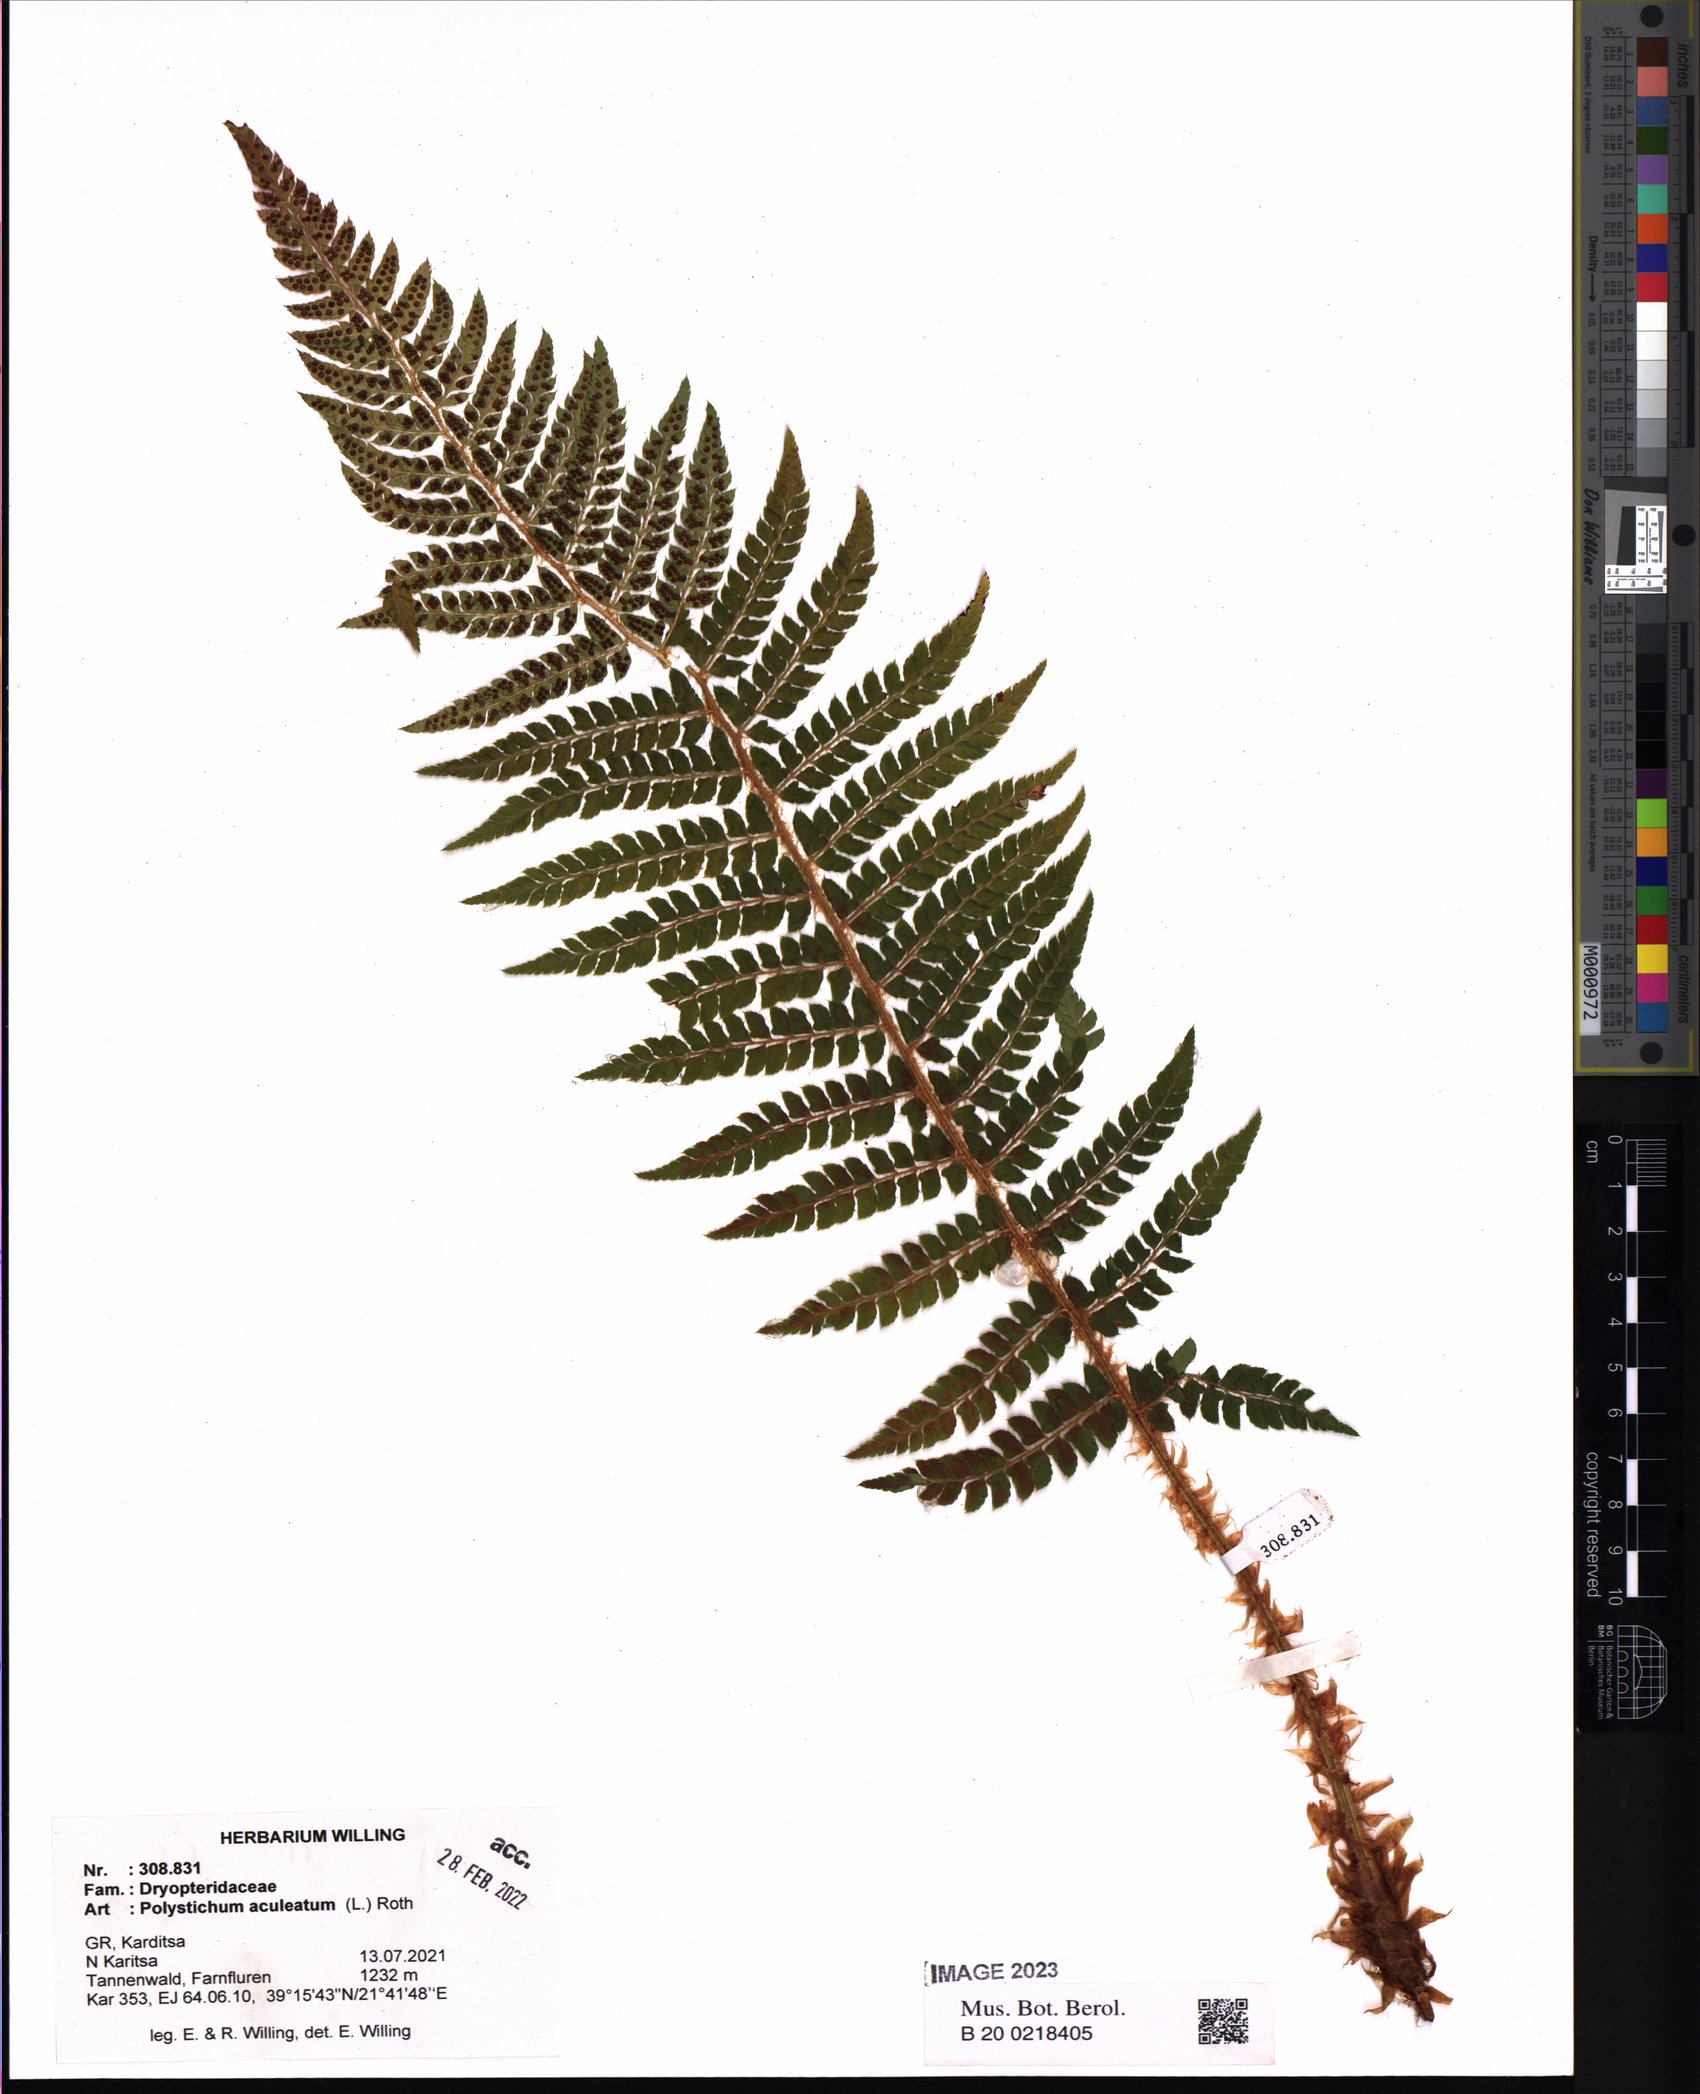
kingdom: Plantae
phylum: Tracheophyta
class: Polypodiopsida
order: Polypodiales
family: Dryopteridaceae
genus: Polystichum
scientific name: Polystichum aculeatum
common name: Hard shield-fern
